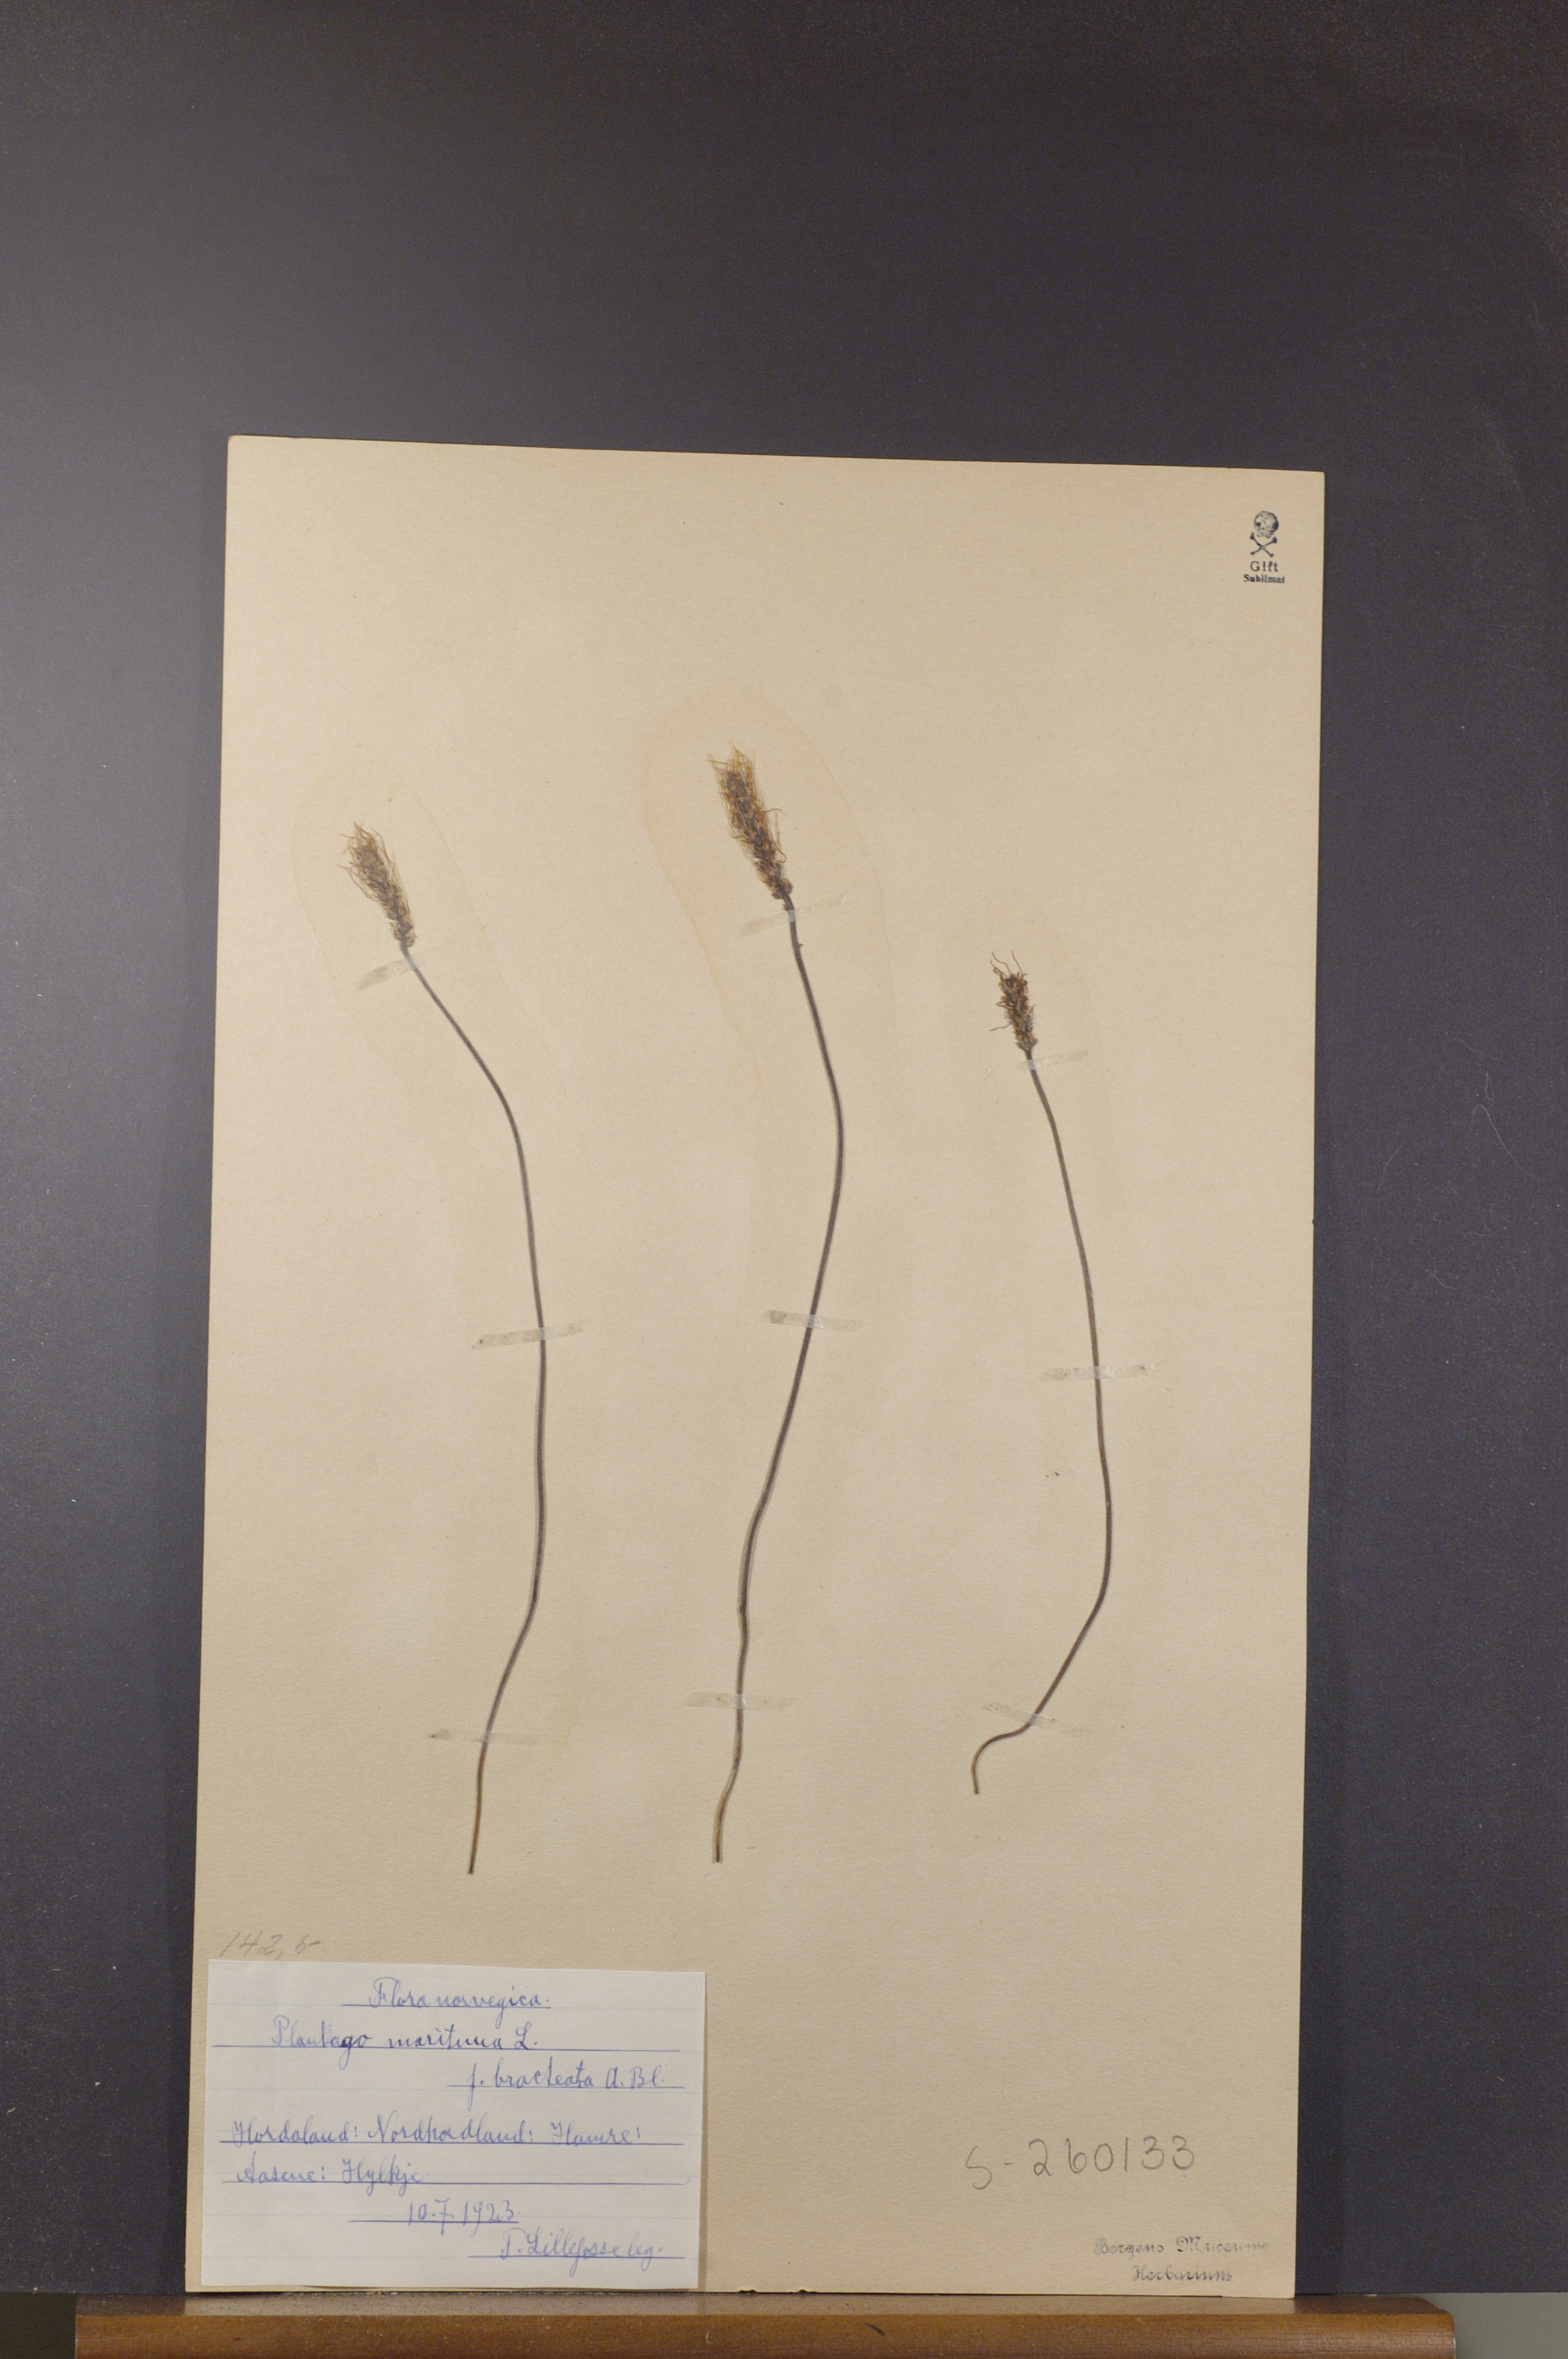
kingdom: Plantae
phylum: Tracheophyta
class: Magnoliopsida
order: Lamiales
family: Plantaginaceae
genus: Plantago
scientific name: Plantago maritima
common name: Sea plantain
